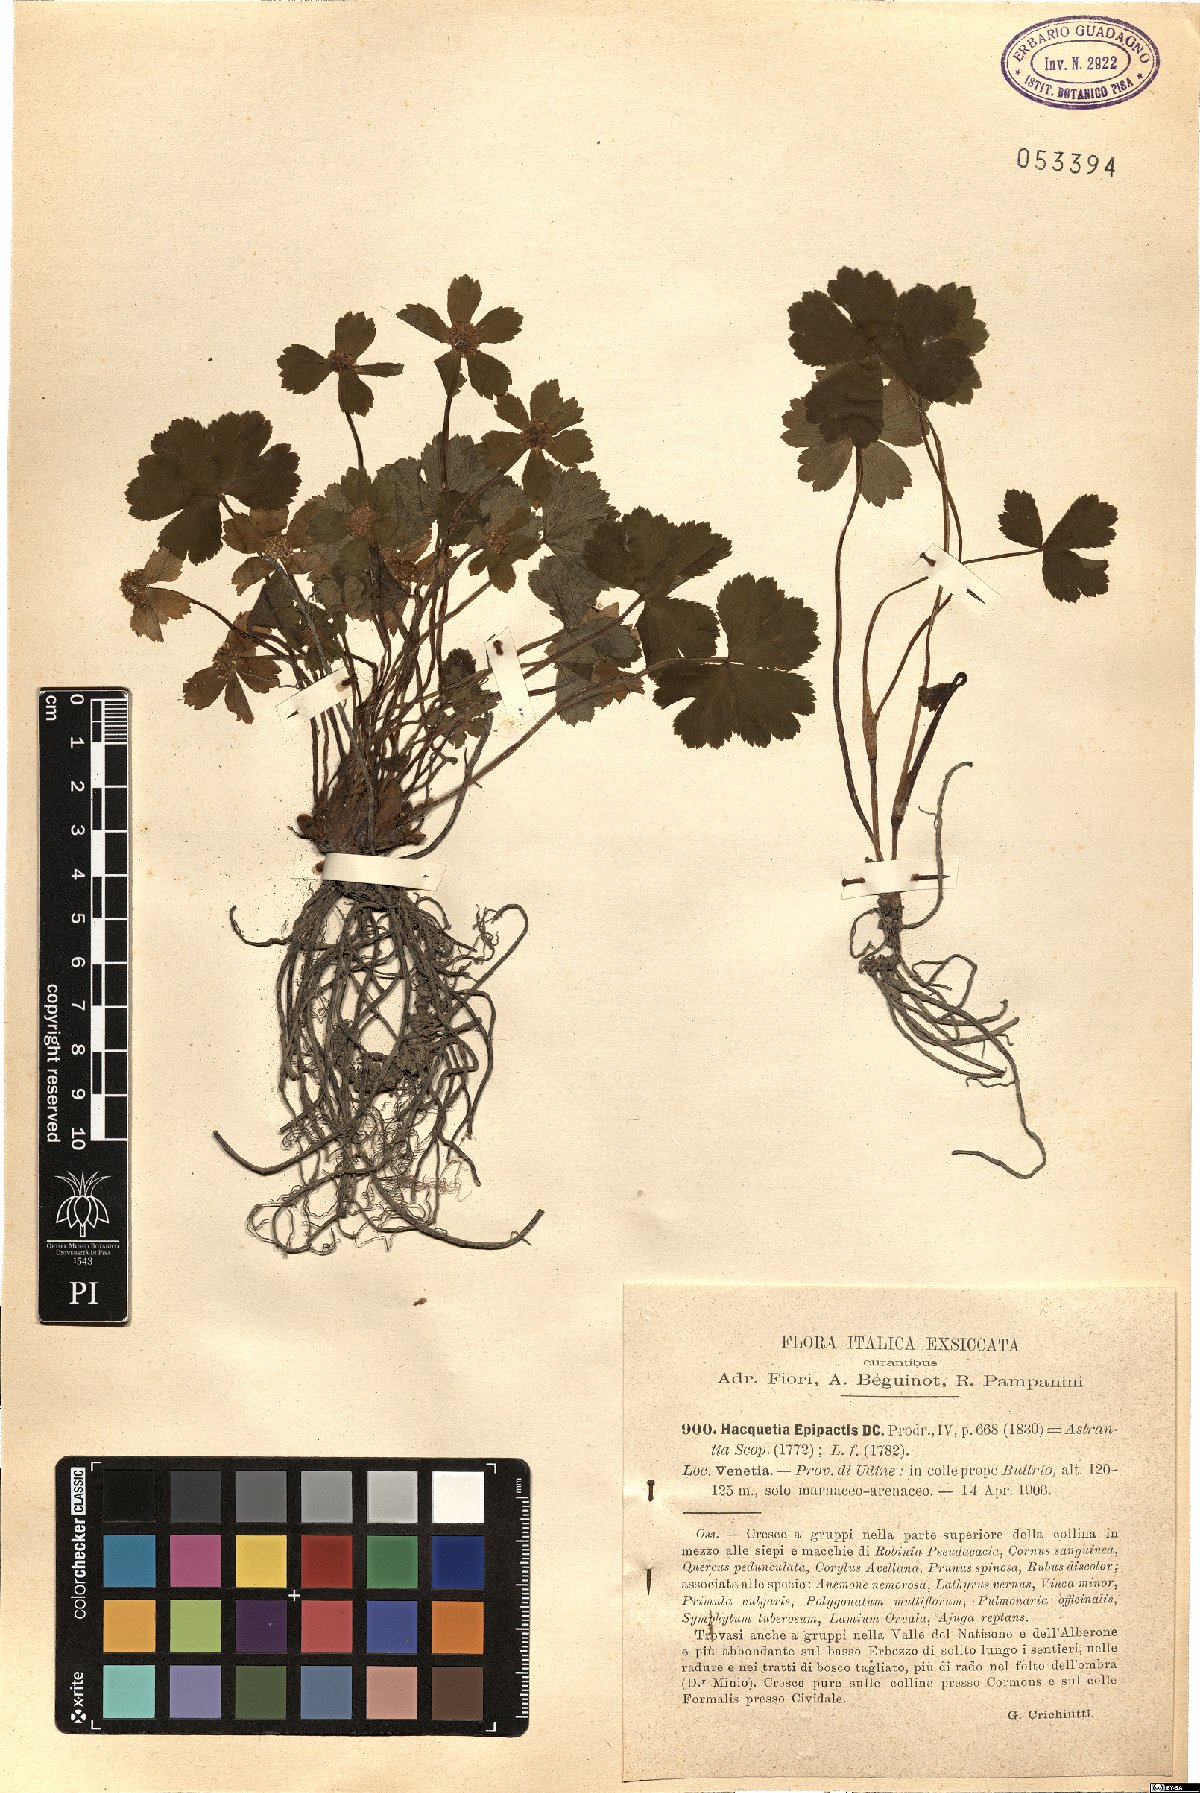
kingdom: Plantae
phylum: Tracheophyta
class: Magnoliopsida
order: Apiales
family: Apiaceae
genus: Sanicula
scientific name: Sanicula epipactis
